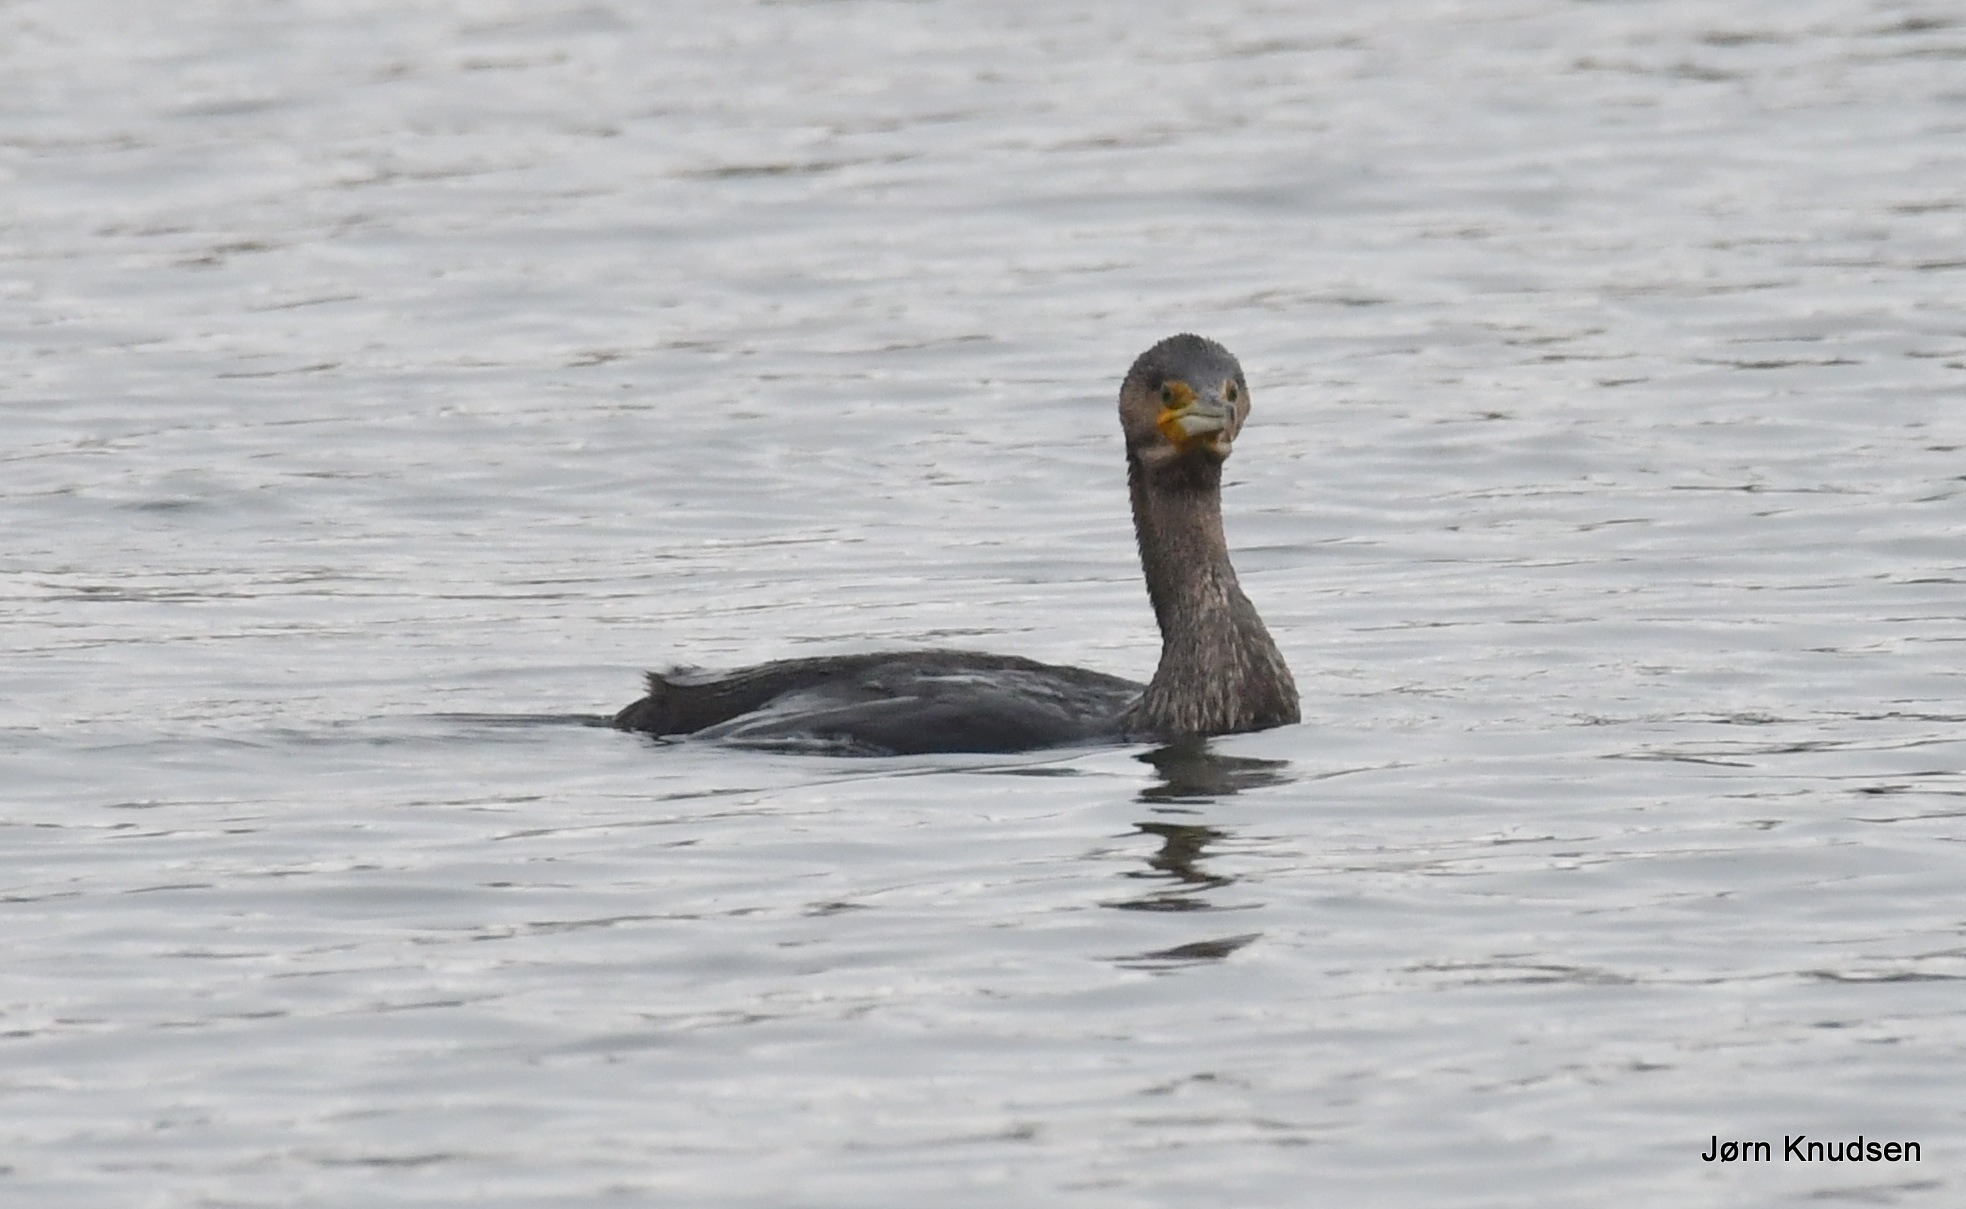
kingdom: Animalia
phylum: Chordata
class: Aves
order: Suliformes
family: Phalacrocoracidae
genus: Phalacrocorax
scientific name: Phalacrocorax carbo
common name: Skarv
